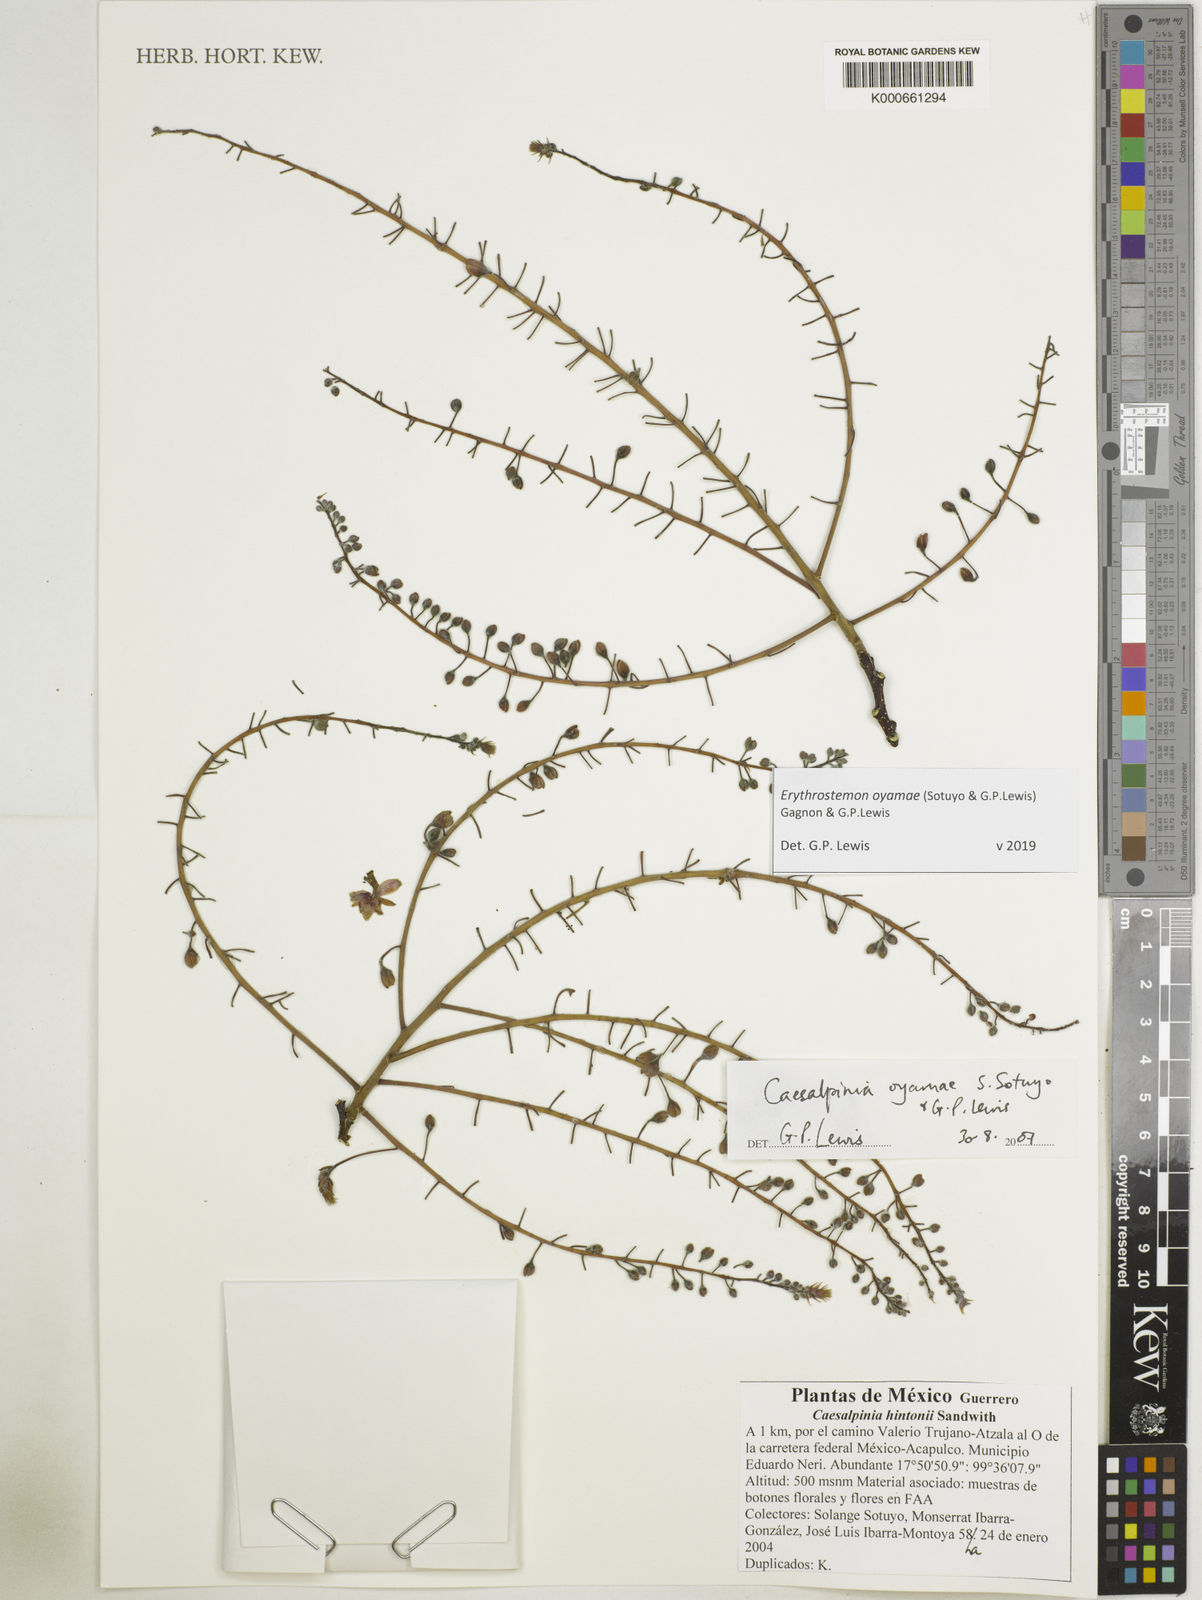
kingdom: Plantae
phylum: Tracheophyta
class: Magnoliopsida
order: Fabales
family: Fabaceae
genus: Erythrostemon
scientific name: Erythrostemon oyamae
